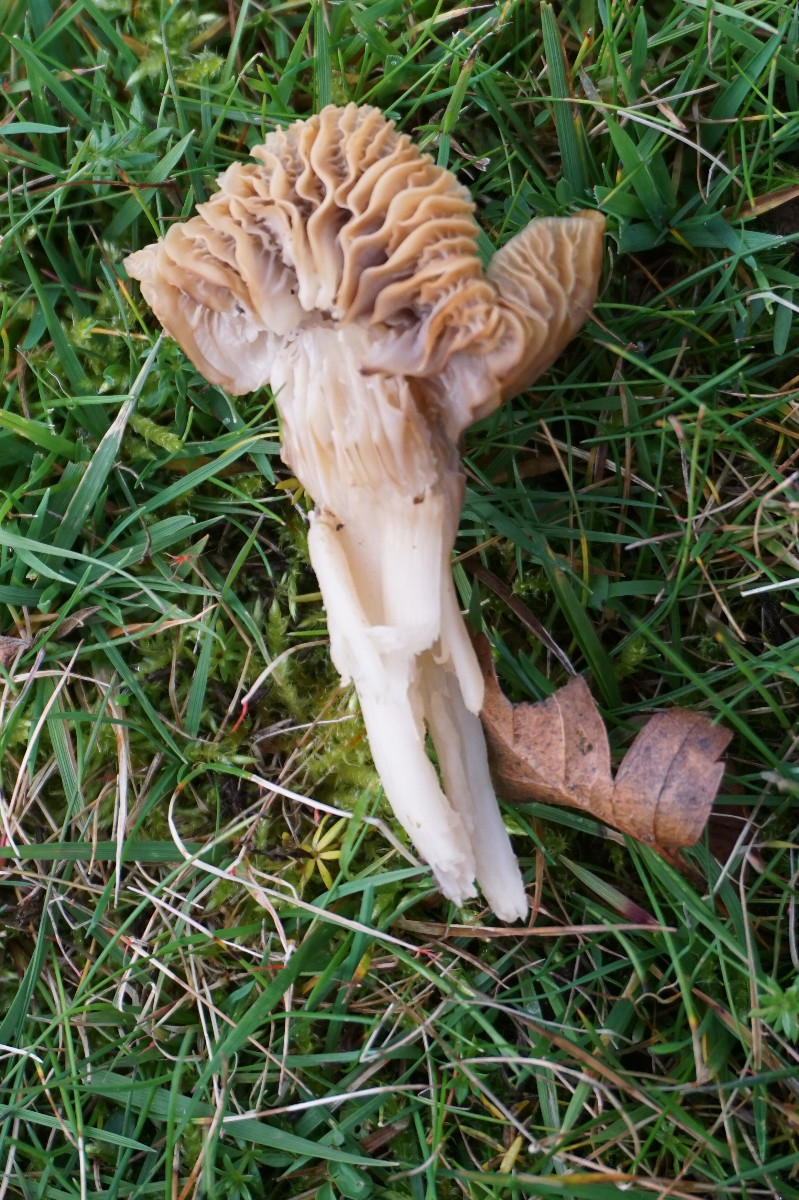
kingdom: Fungi
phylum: Basidiomycota
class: Agaricomycetes
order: Agaricales
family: Hygrophoraceae
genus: Cuphophyllus
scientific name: Cuphophyllus
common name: vokshat
